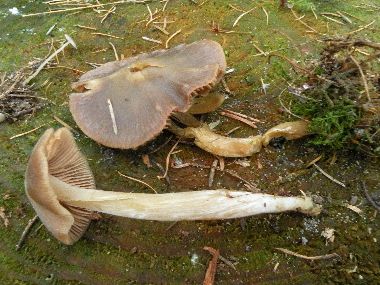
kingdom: Fungi
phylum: Basidiomycota
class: Agaricomycetes
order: Agaricales
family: Entolomataceae
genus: Entoloma
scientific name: Entoloma pallescens
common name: tidlig rødblad
